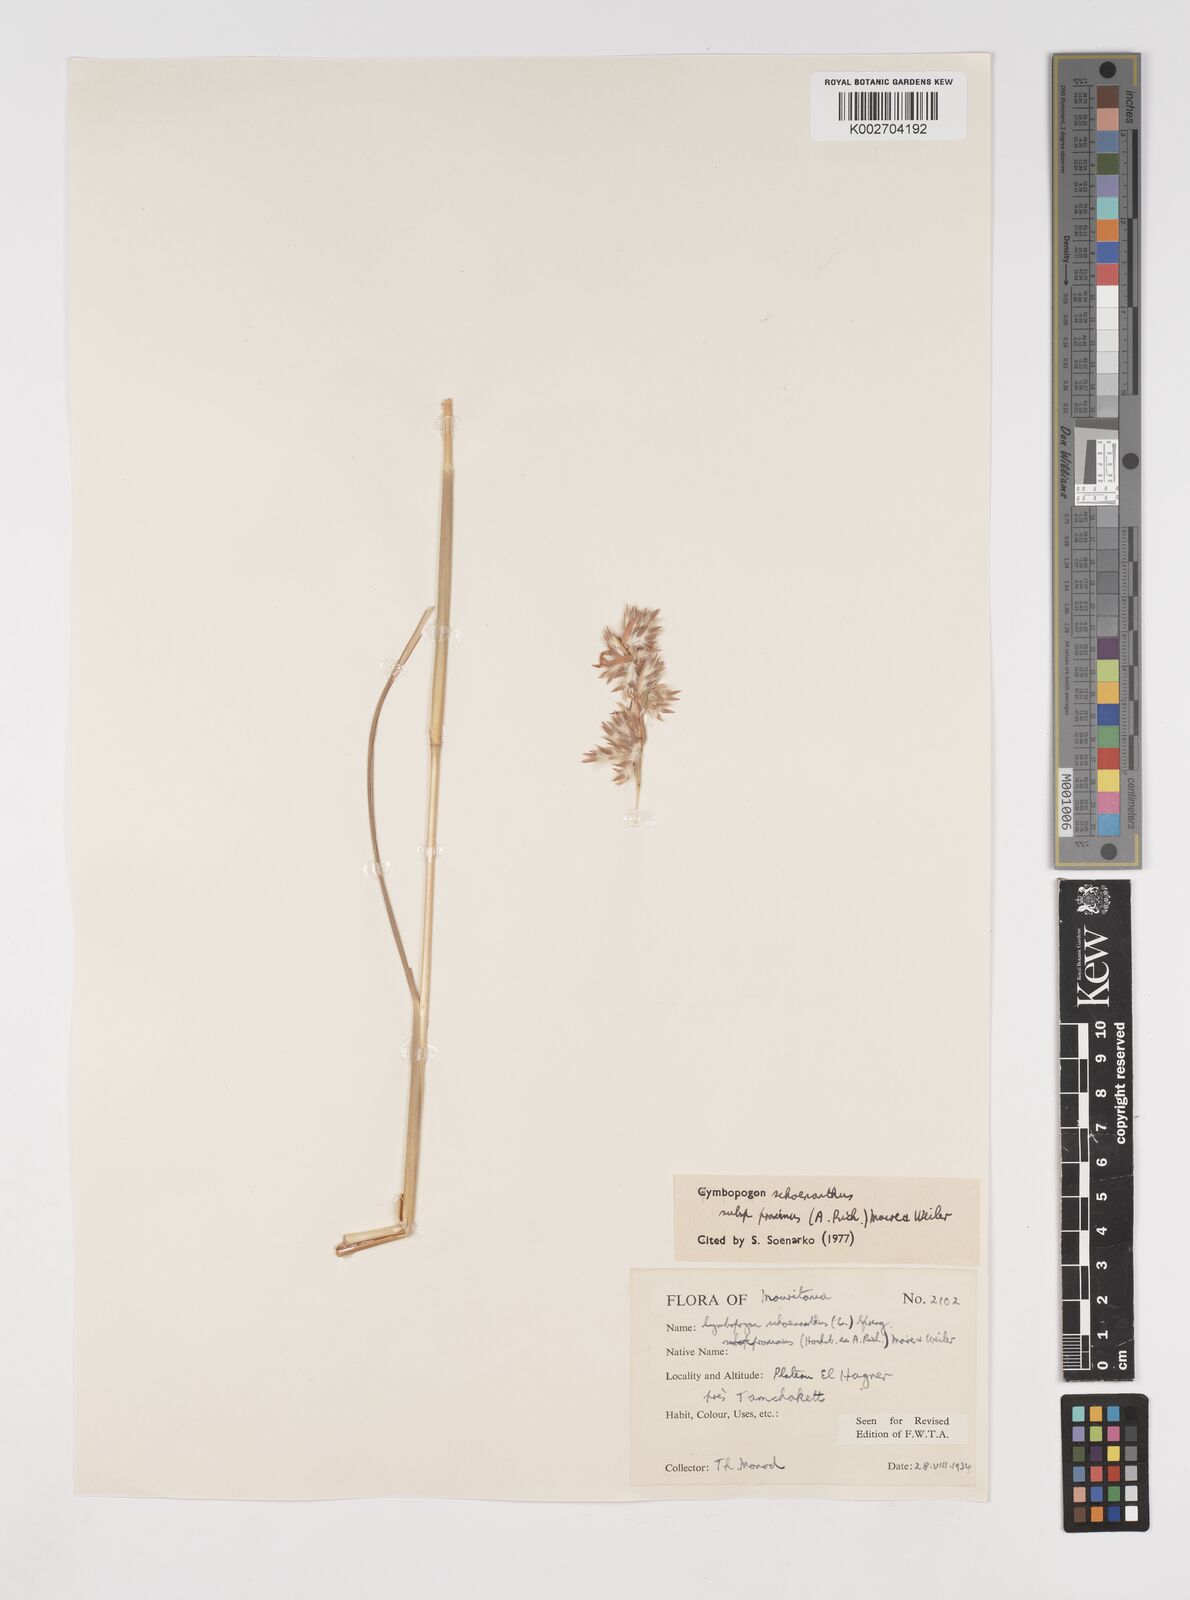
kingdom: Plantae
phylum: Tracheophyta
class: Liliopsida
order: Poales
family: Poaceae
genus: Cymbopogon
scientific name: Cymbopogon schoenanthus
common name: Geranium grass
